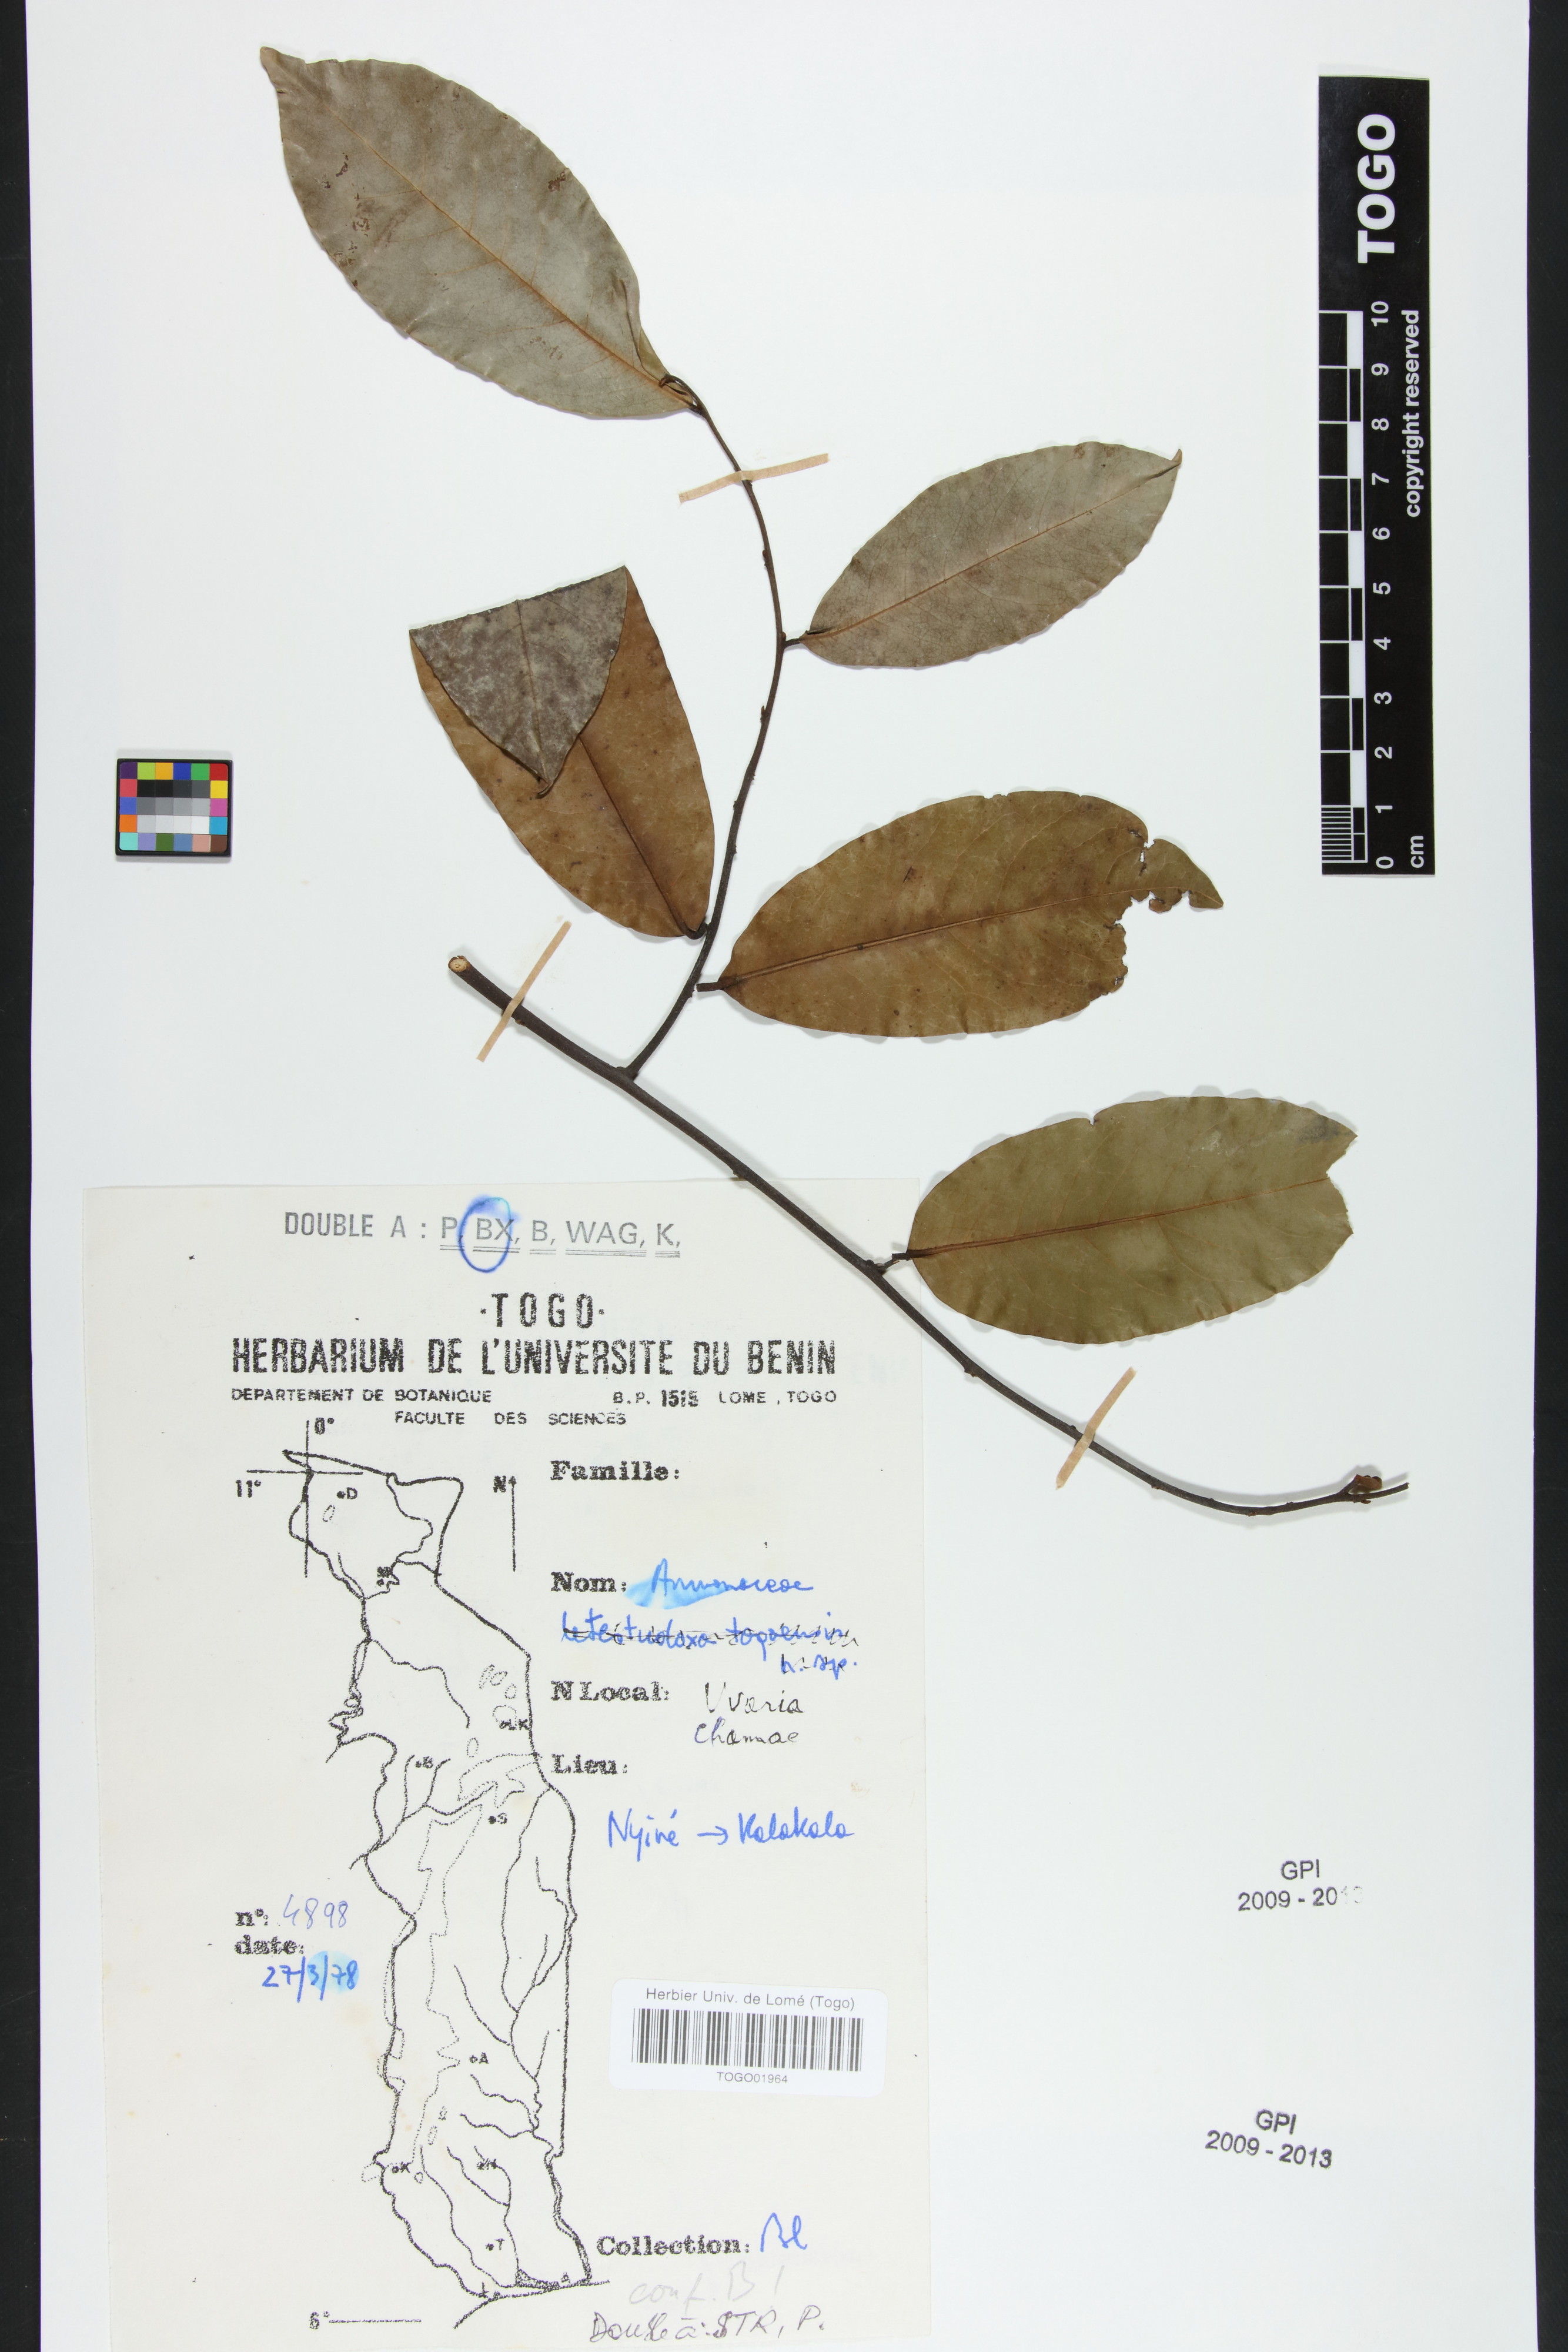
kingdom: Plantae
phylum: Tracheophyta
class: Magnoliopsida
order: Magnoliales
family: Annonaceae
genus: Uvaria
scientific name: Uvaria chamae
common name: Finger-root
